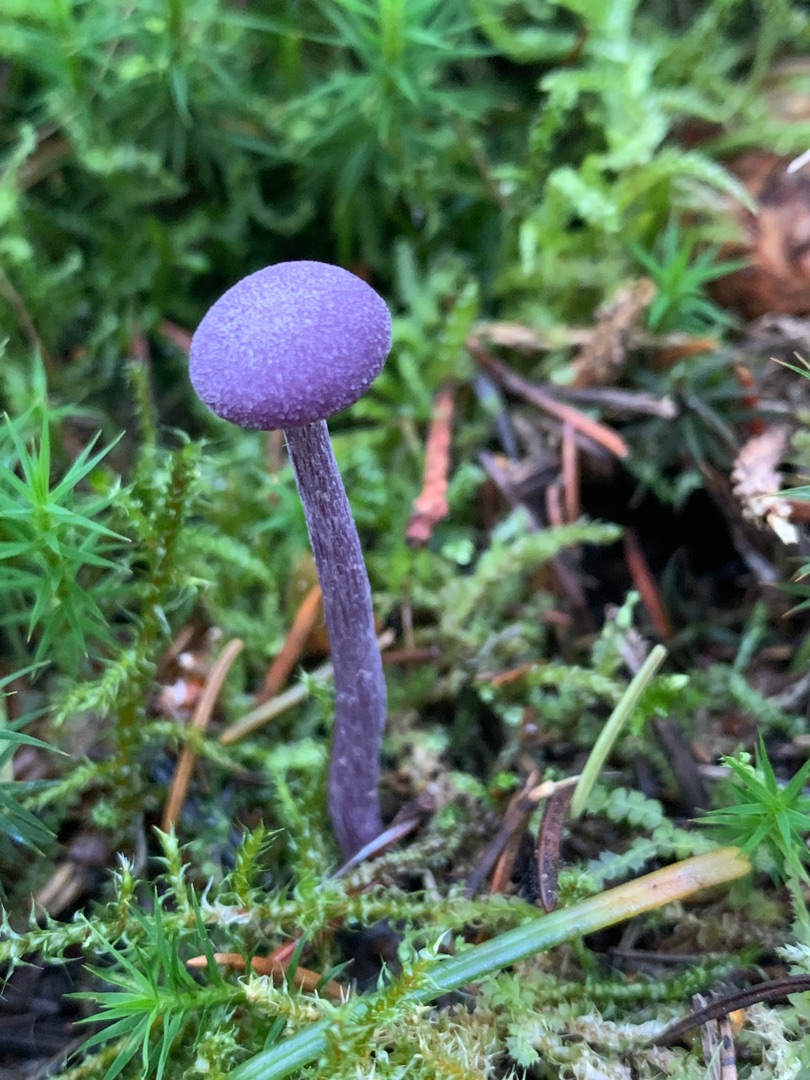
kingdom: Fungi
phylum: Basidiomycota
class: Agaricomycetes
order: Agaricales
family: Hydnangiaceae
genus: Laccaria
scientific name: Laccaria amethystina
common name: Violet ametysthat
